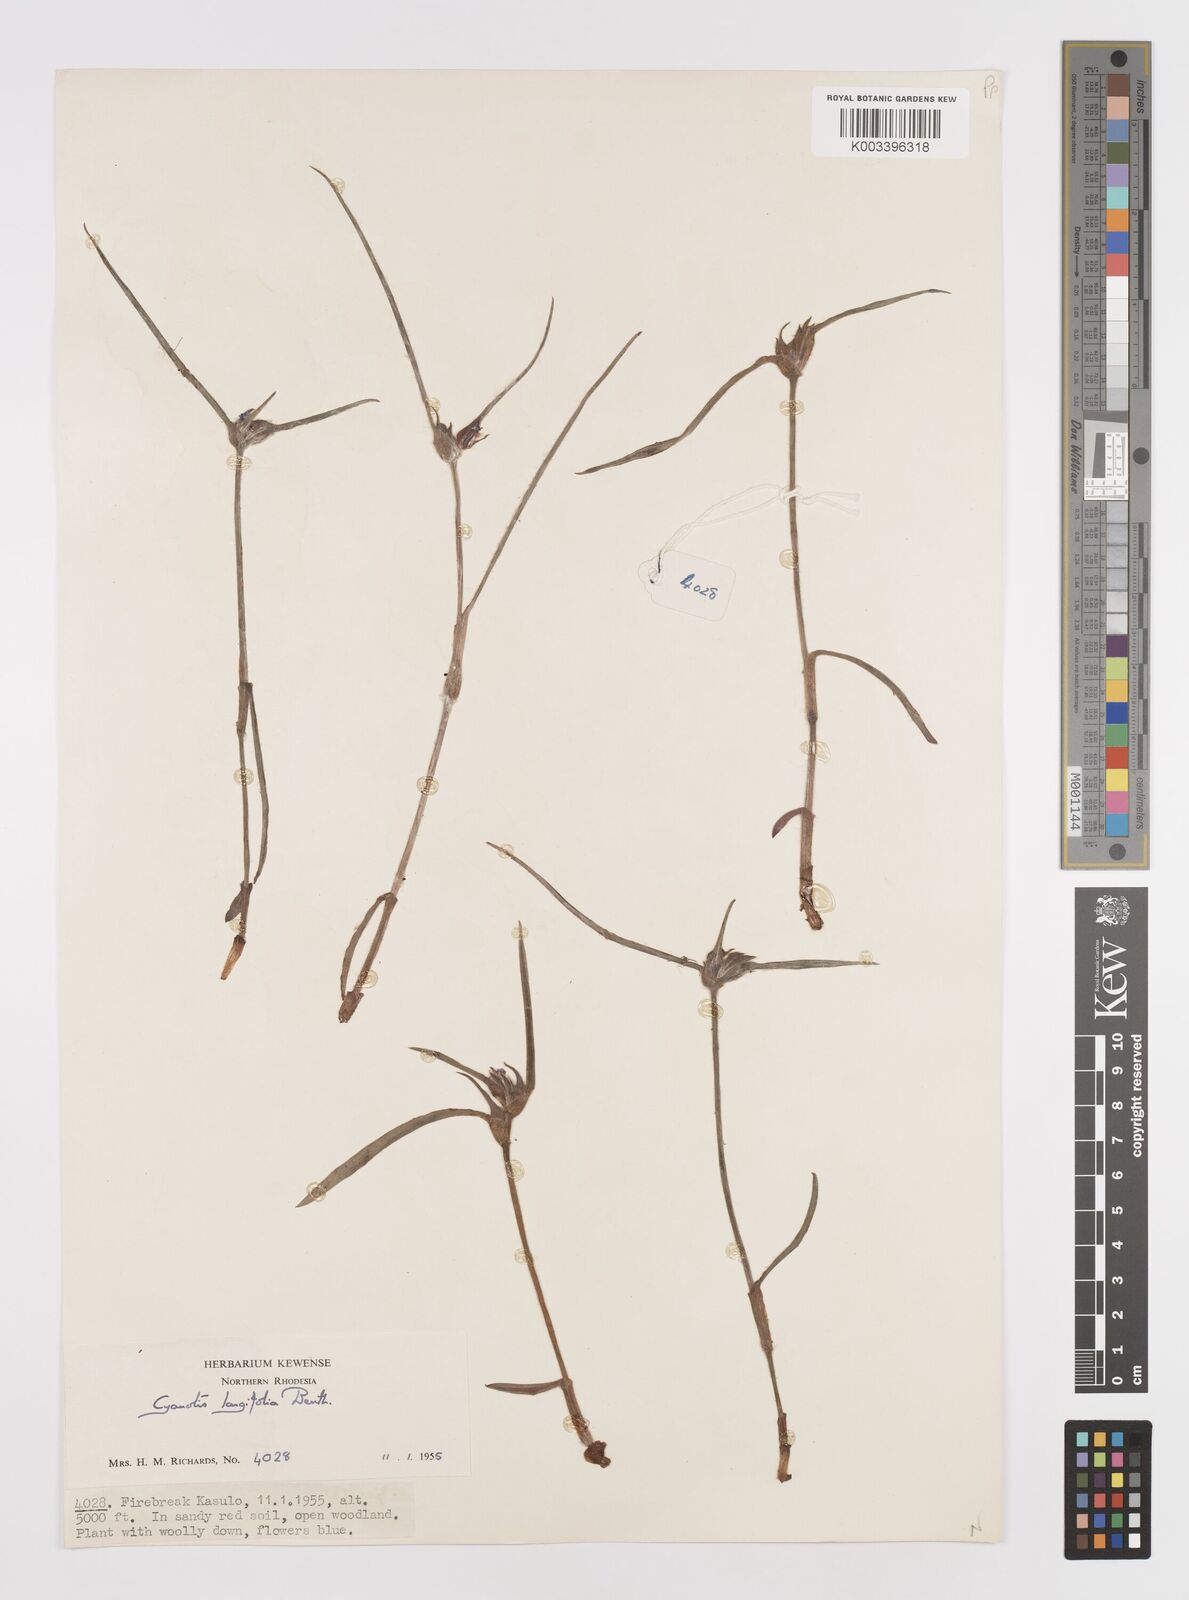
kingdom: Plantae
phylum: Tracheophyta
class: Liliopsida
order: Commelinales
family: Commelinaceae
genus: Cyanotis
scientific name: Cyanotis longifolia
